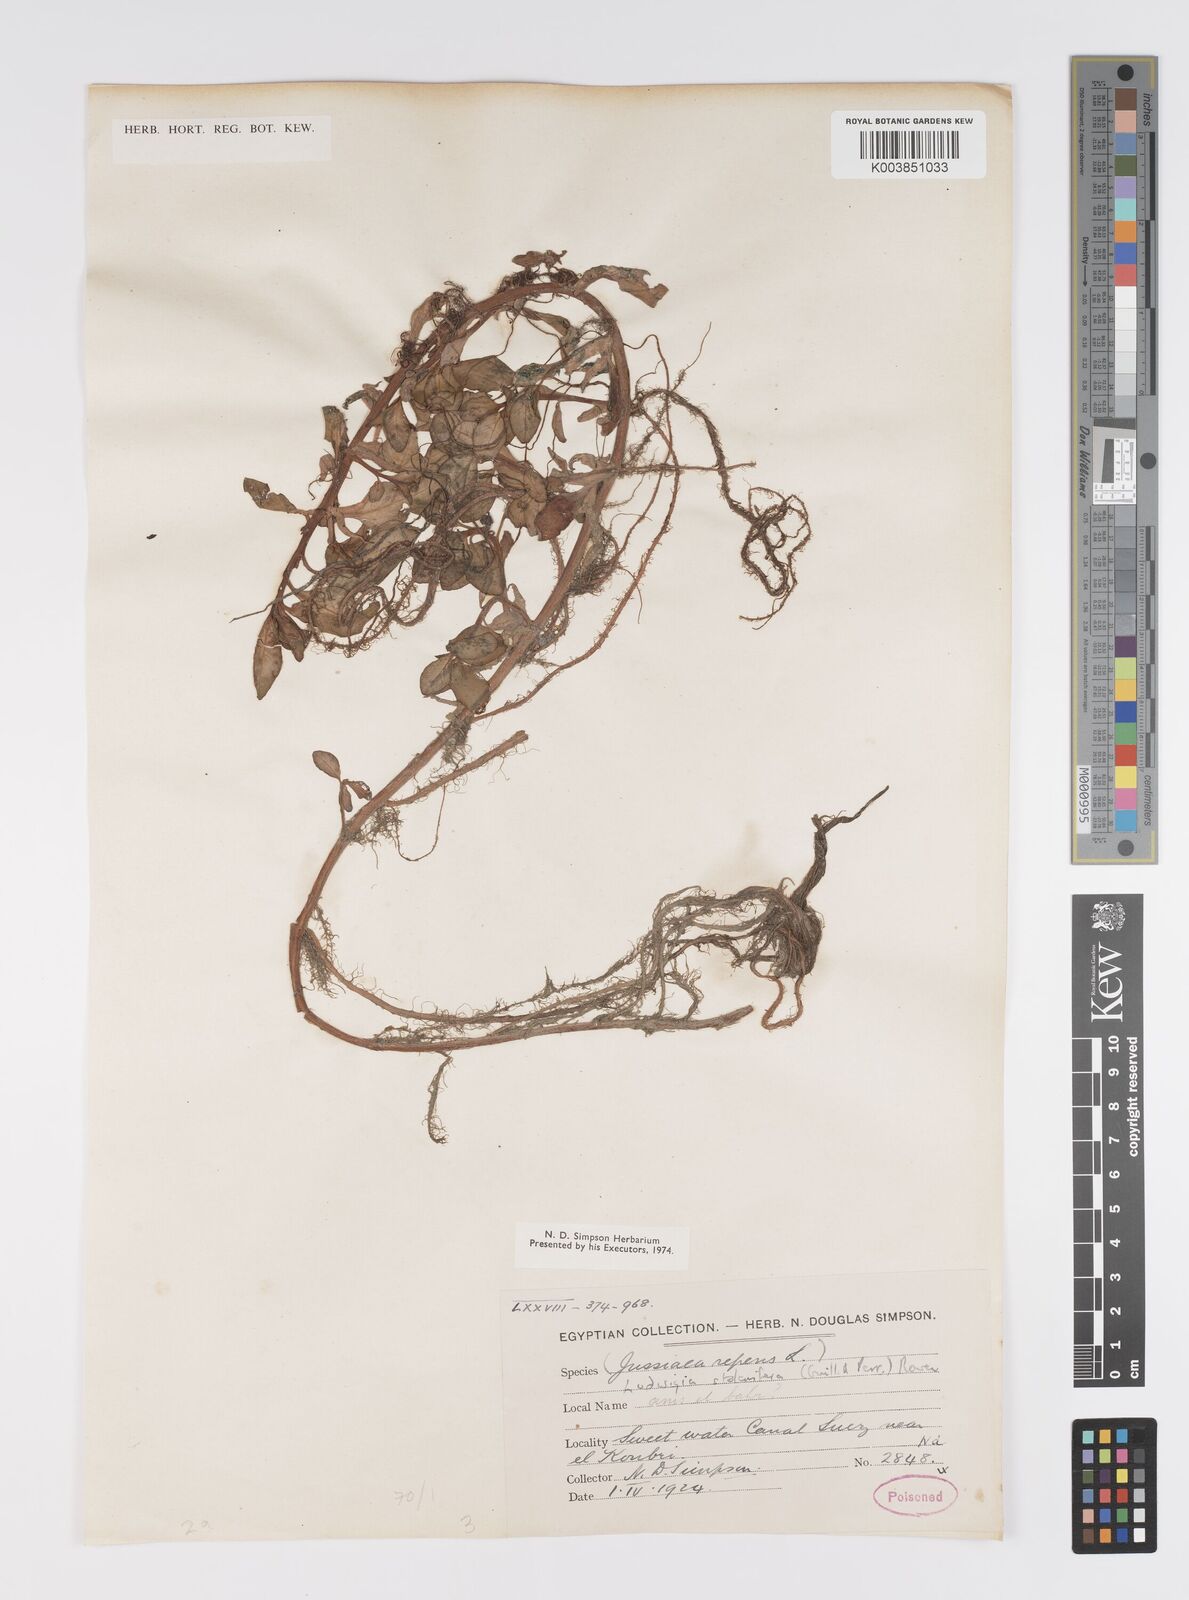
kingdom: Plantae
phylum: Tracheophyta
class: Magnoliopsida
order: Myrtales
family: Onagraceae
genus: Ludwigia
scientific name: Ludwigia adscendens
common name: Creeping water primrose
